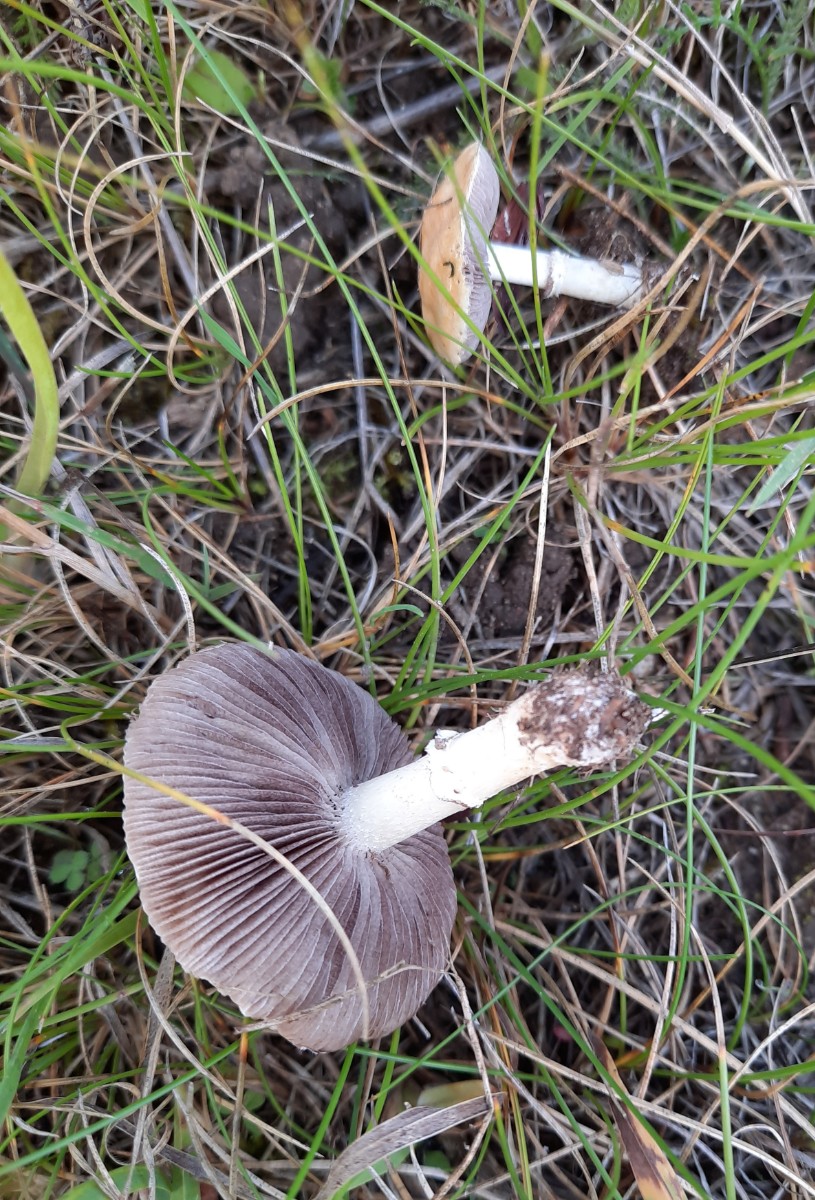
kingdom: Fungi
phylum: Basidiomycota
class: Agaricomycetes
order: Agaricales
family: Hymenogastraceae
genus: Psilocybe
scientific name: Psilocybe coronilla
